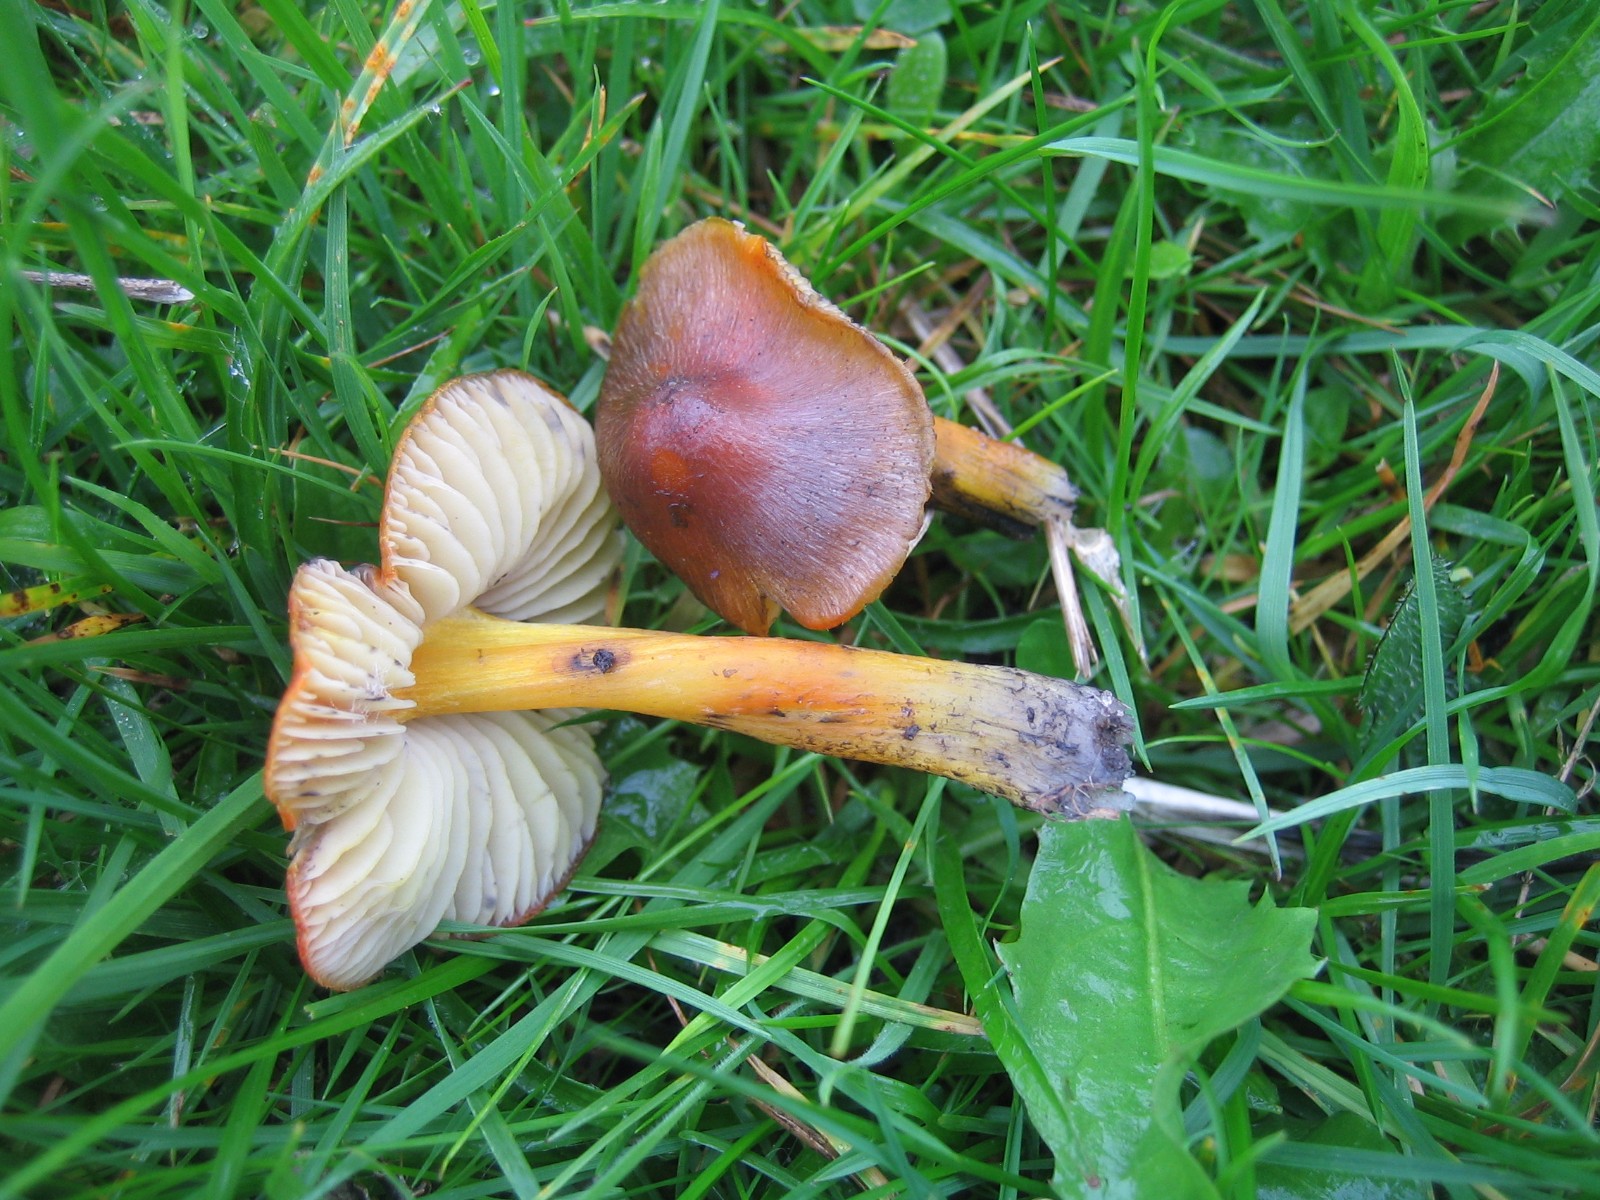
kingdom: Fungi
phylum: Basidiomycota
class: Agaricomycetes
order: Agaricales
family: Hygrophoraceae
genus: Hygrocybe
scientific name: Hygrocybe conica
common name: kegle-vokshat
